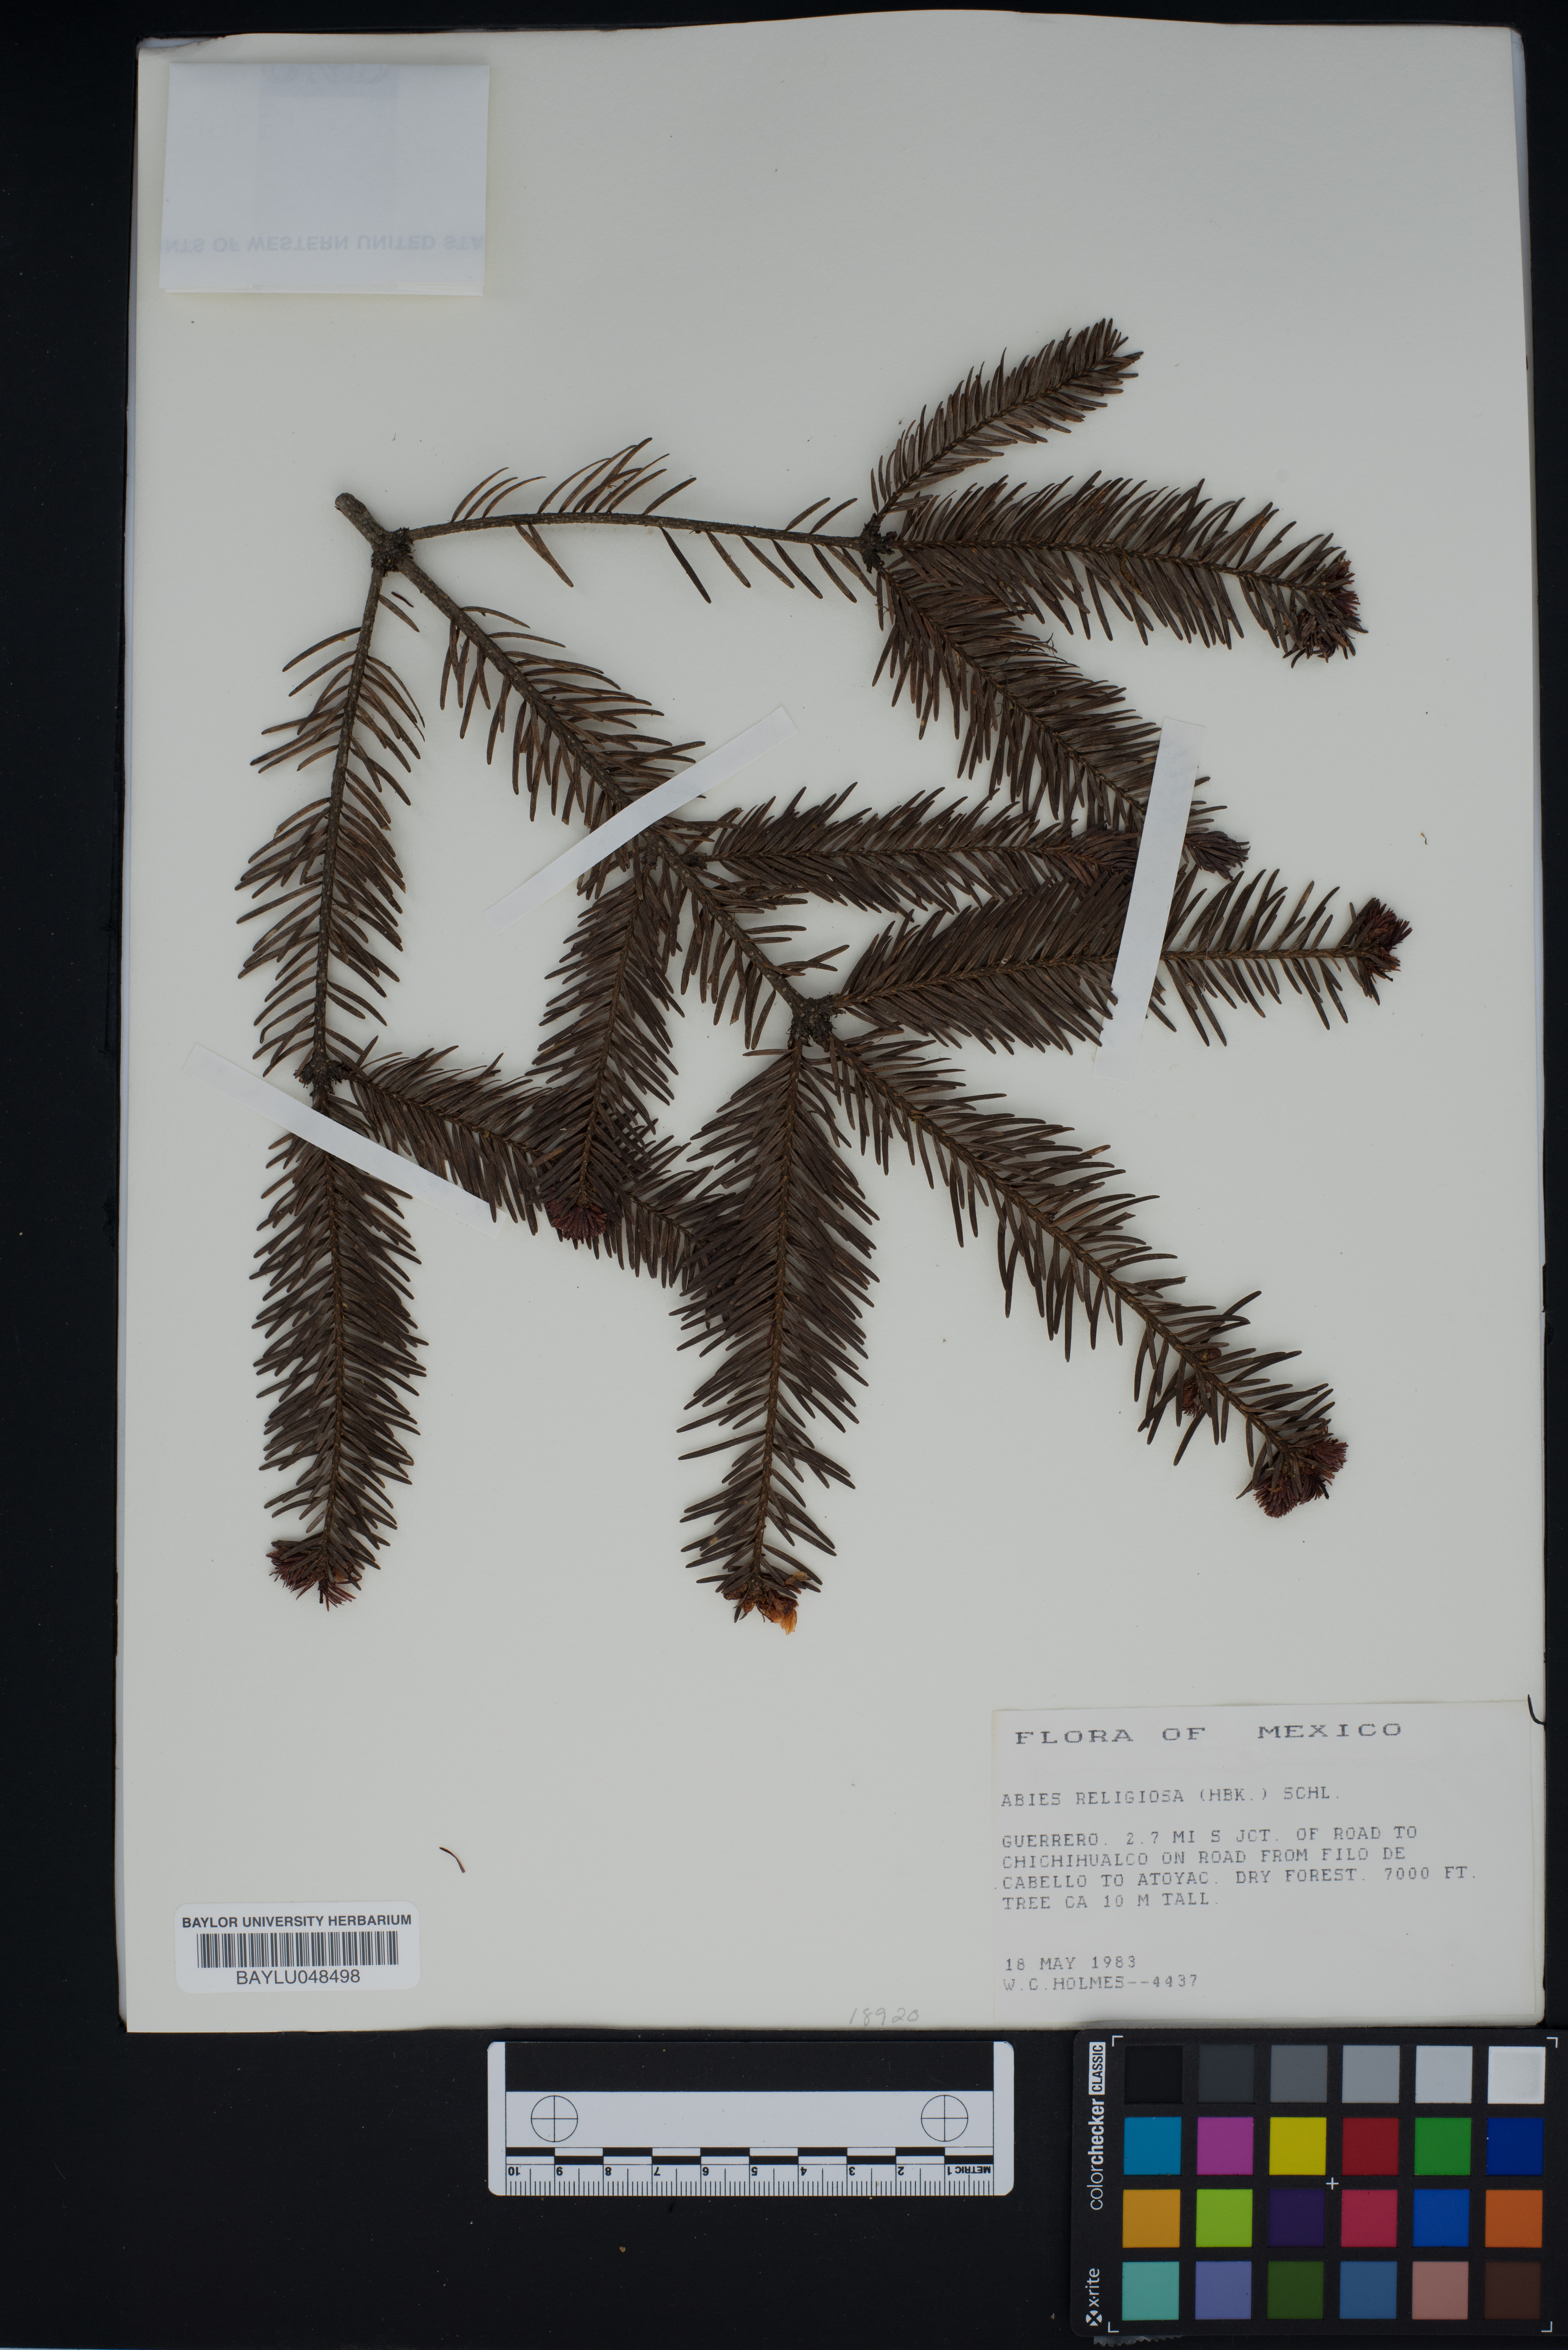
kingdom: Plantae
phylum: Tracheophyta
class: Pinopsida
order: Pinales
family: Pinaceae
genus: Abies
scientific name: Abies religiosa
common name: Sacred fir
